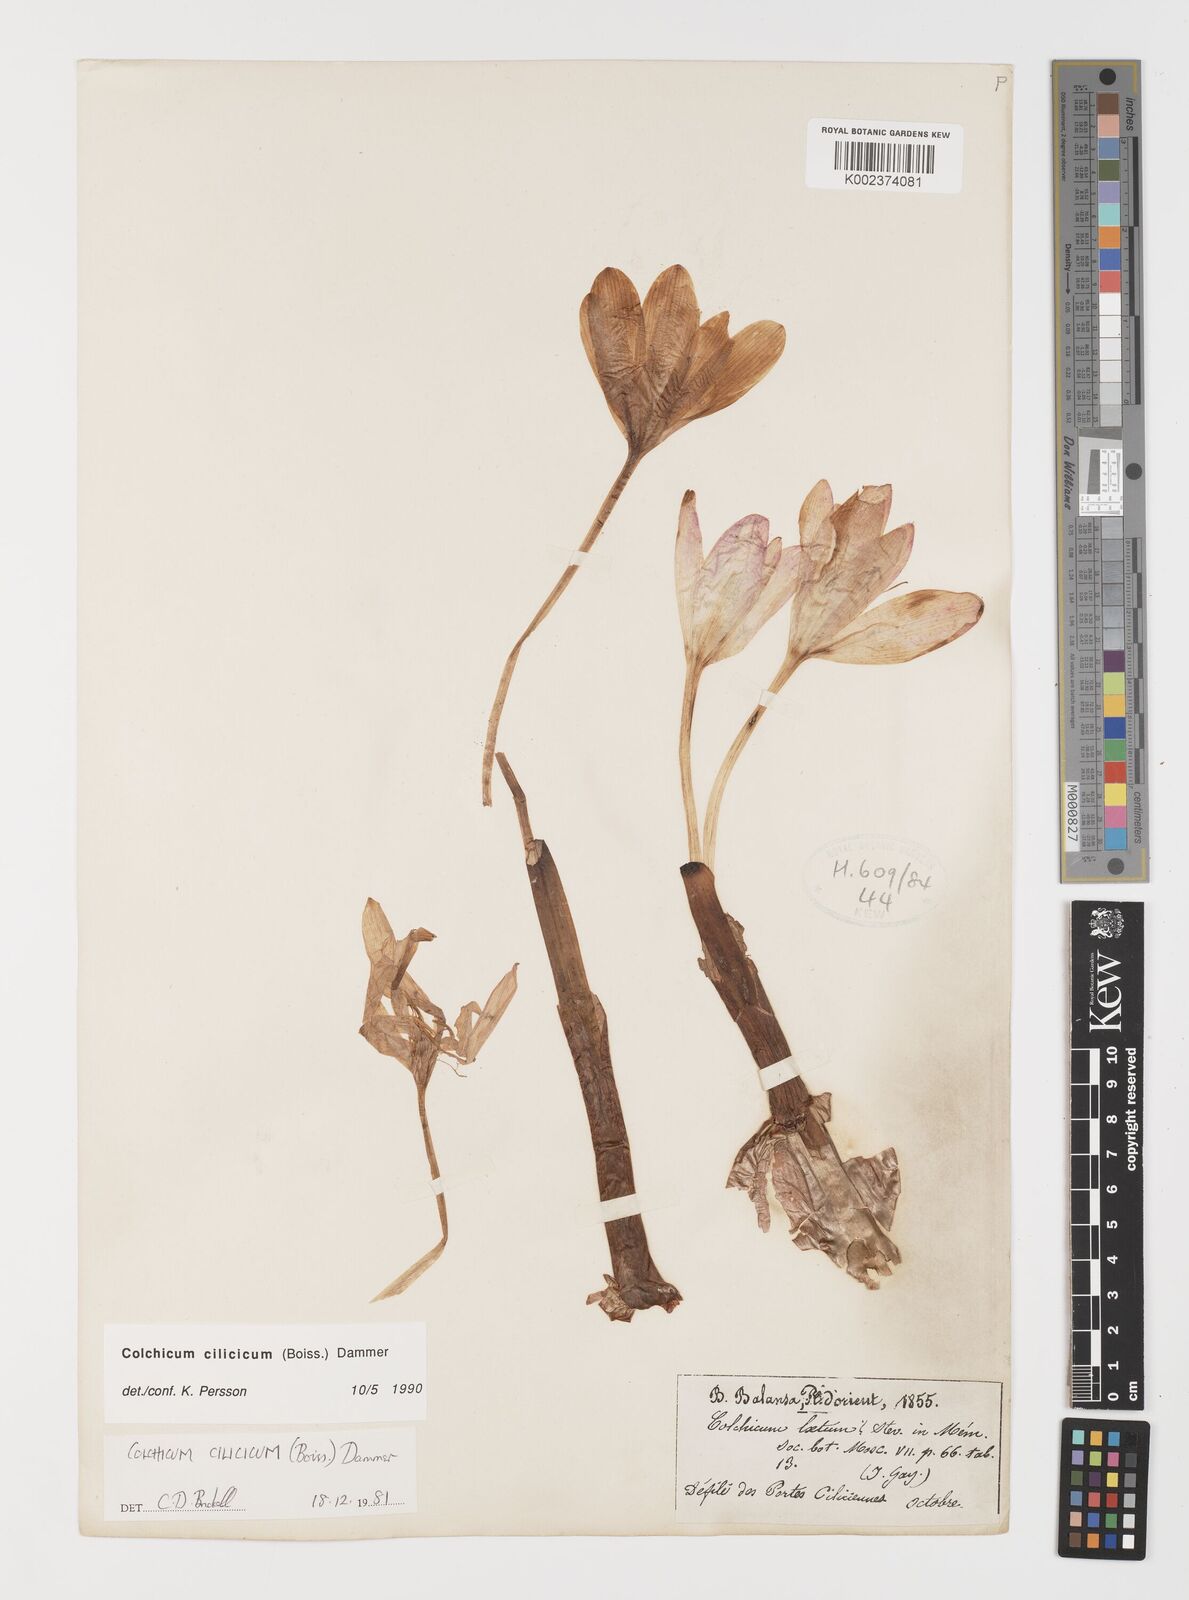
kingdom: Plantae
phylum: Tracheophyta
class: Liliopsida
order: Liliales
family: Colchicaceae
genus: Colchicum
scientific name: Colchicum cilicicum
